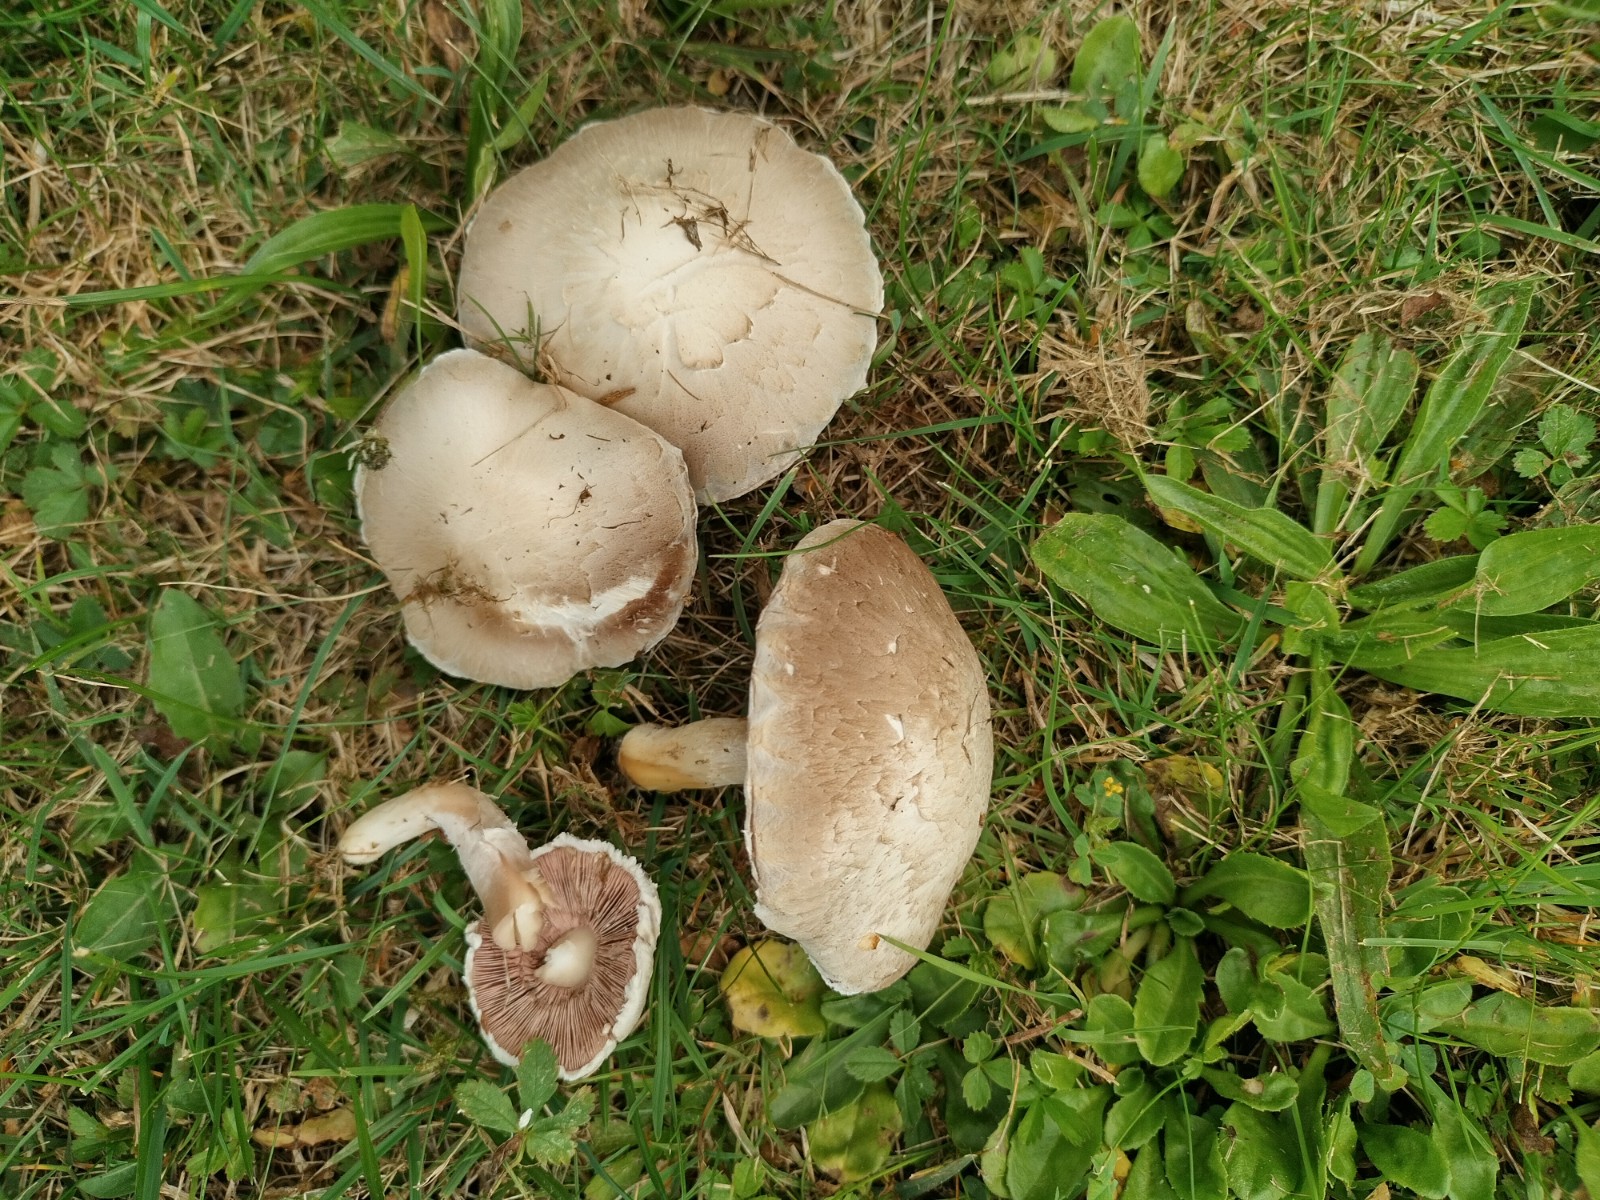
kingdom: Fungi
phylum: Basidiomycota
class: Agaricomycetes
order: Agaricales
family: Agaricaceae
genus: Agaricus
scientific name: Agaricus xanthodermus
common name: karbol-champignon
